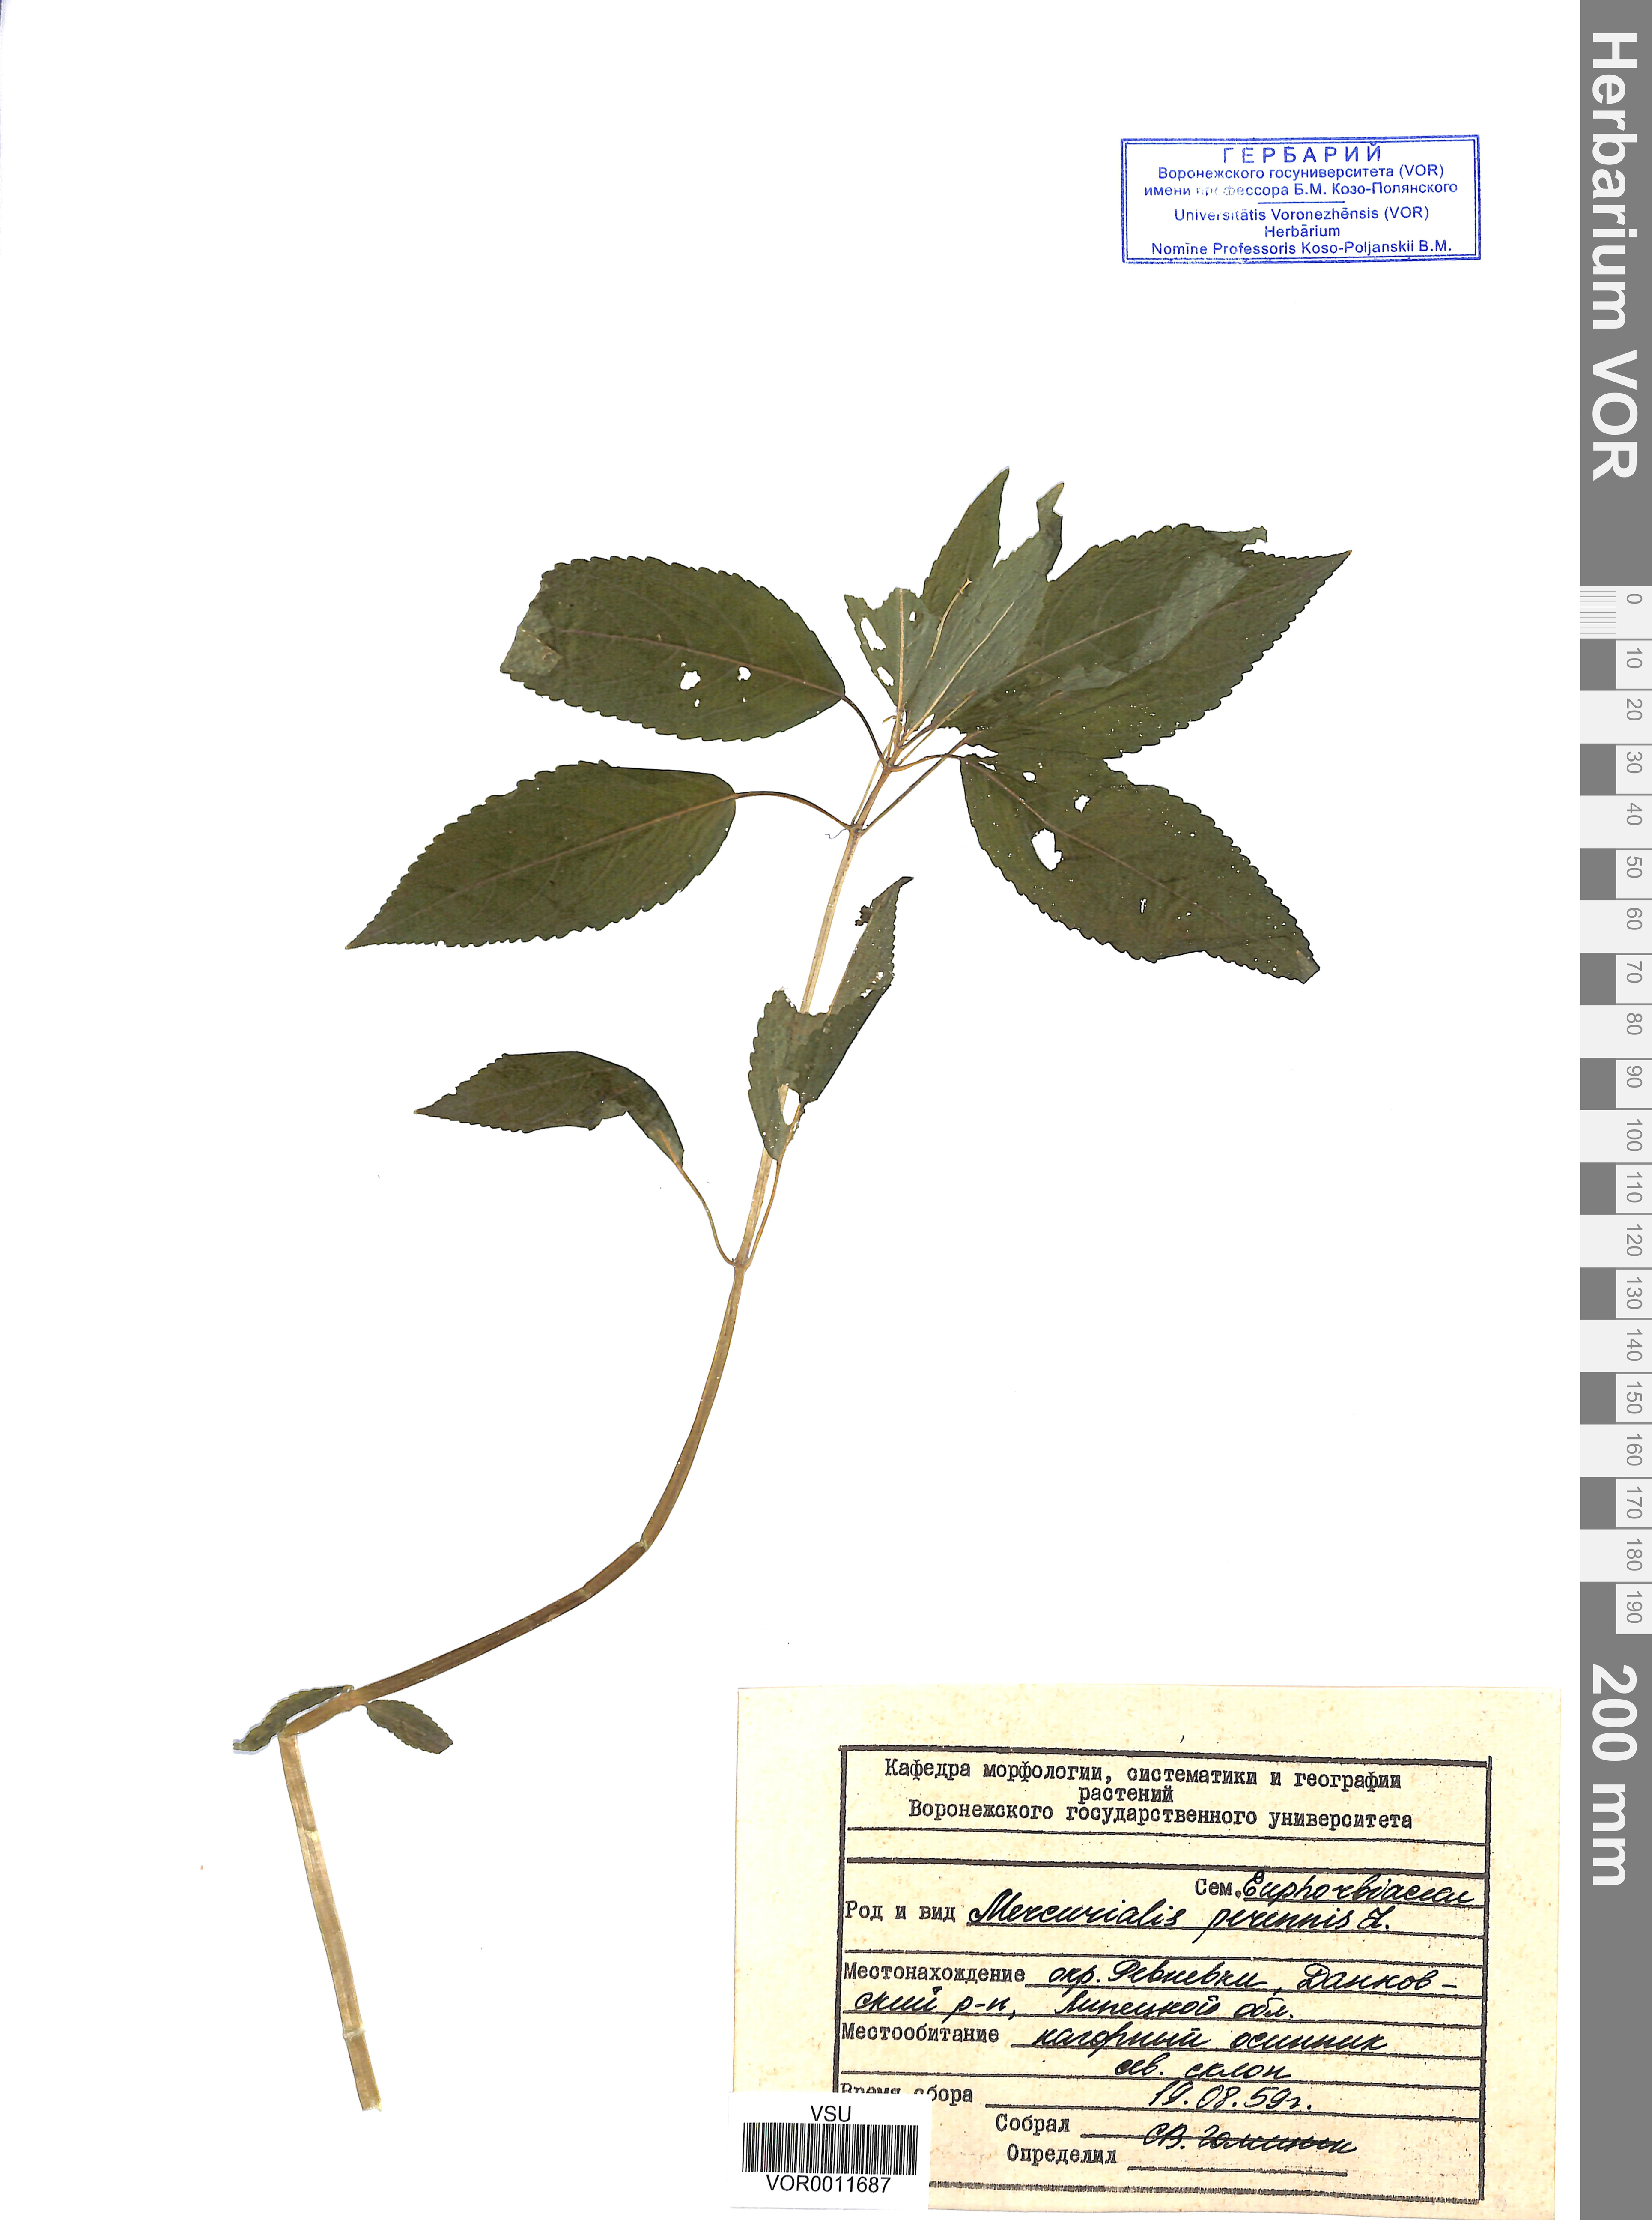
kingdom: Plantae
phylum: Tracheophyta
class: Magnoliopsida
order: Malpighiales
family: Euphorbiaceae
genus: Mercurialis
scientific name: Mercurialis perennis
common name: Dog mercury
